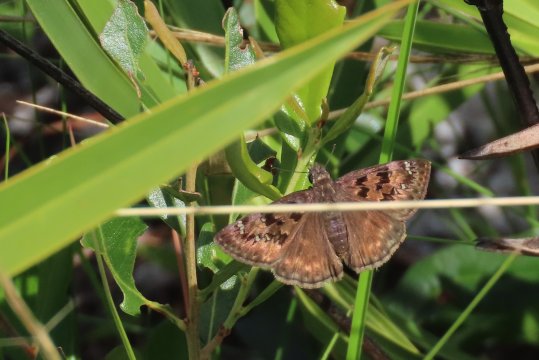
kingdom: Animalia
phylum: Arthropoda
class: Insecta
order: Lepidoptera
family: Hesperiidae
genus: Gesta
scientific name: Gesta
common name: Horace's Duskywing
